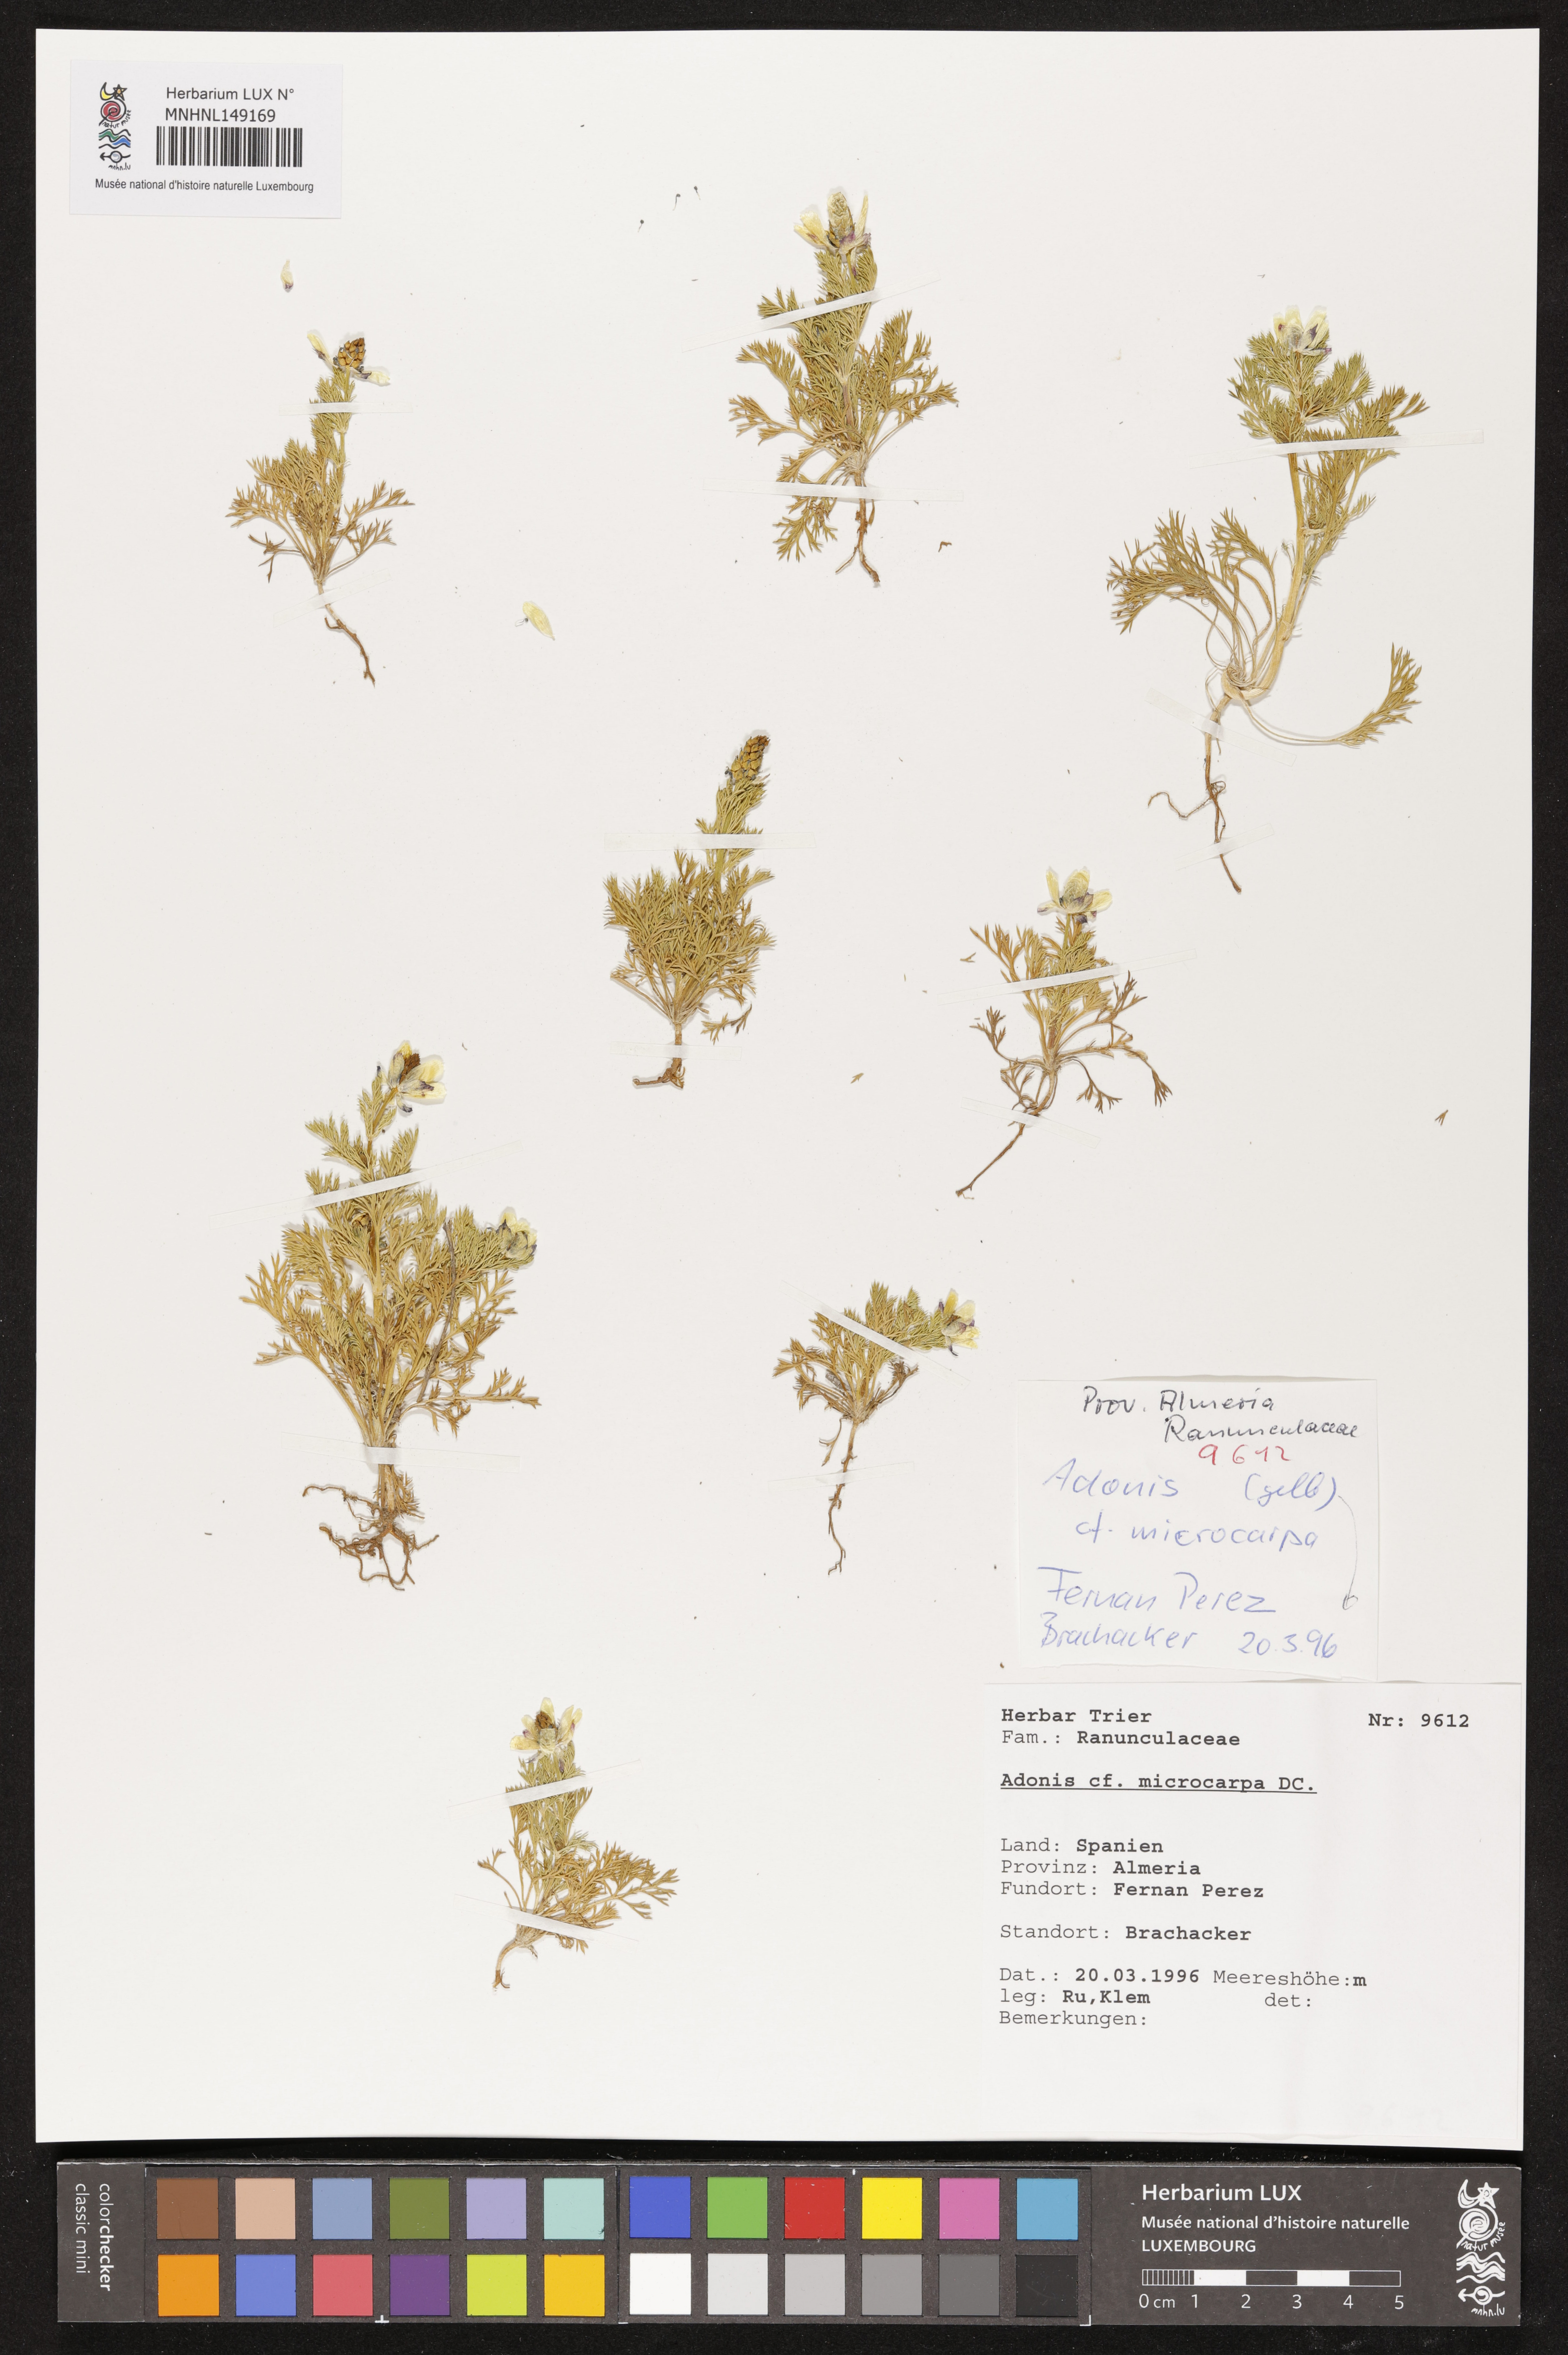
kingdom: Plantae
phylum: Tracheophyta
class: Magnoliopsida
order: Ranunculales
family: Ranunculaceae
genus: Adonis
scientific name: Adonis microcarpa
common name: Pheasant's-eye
